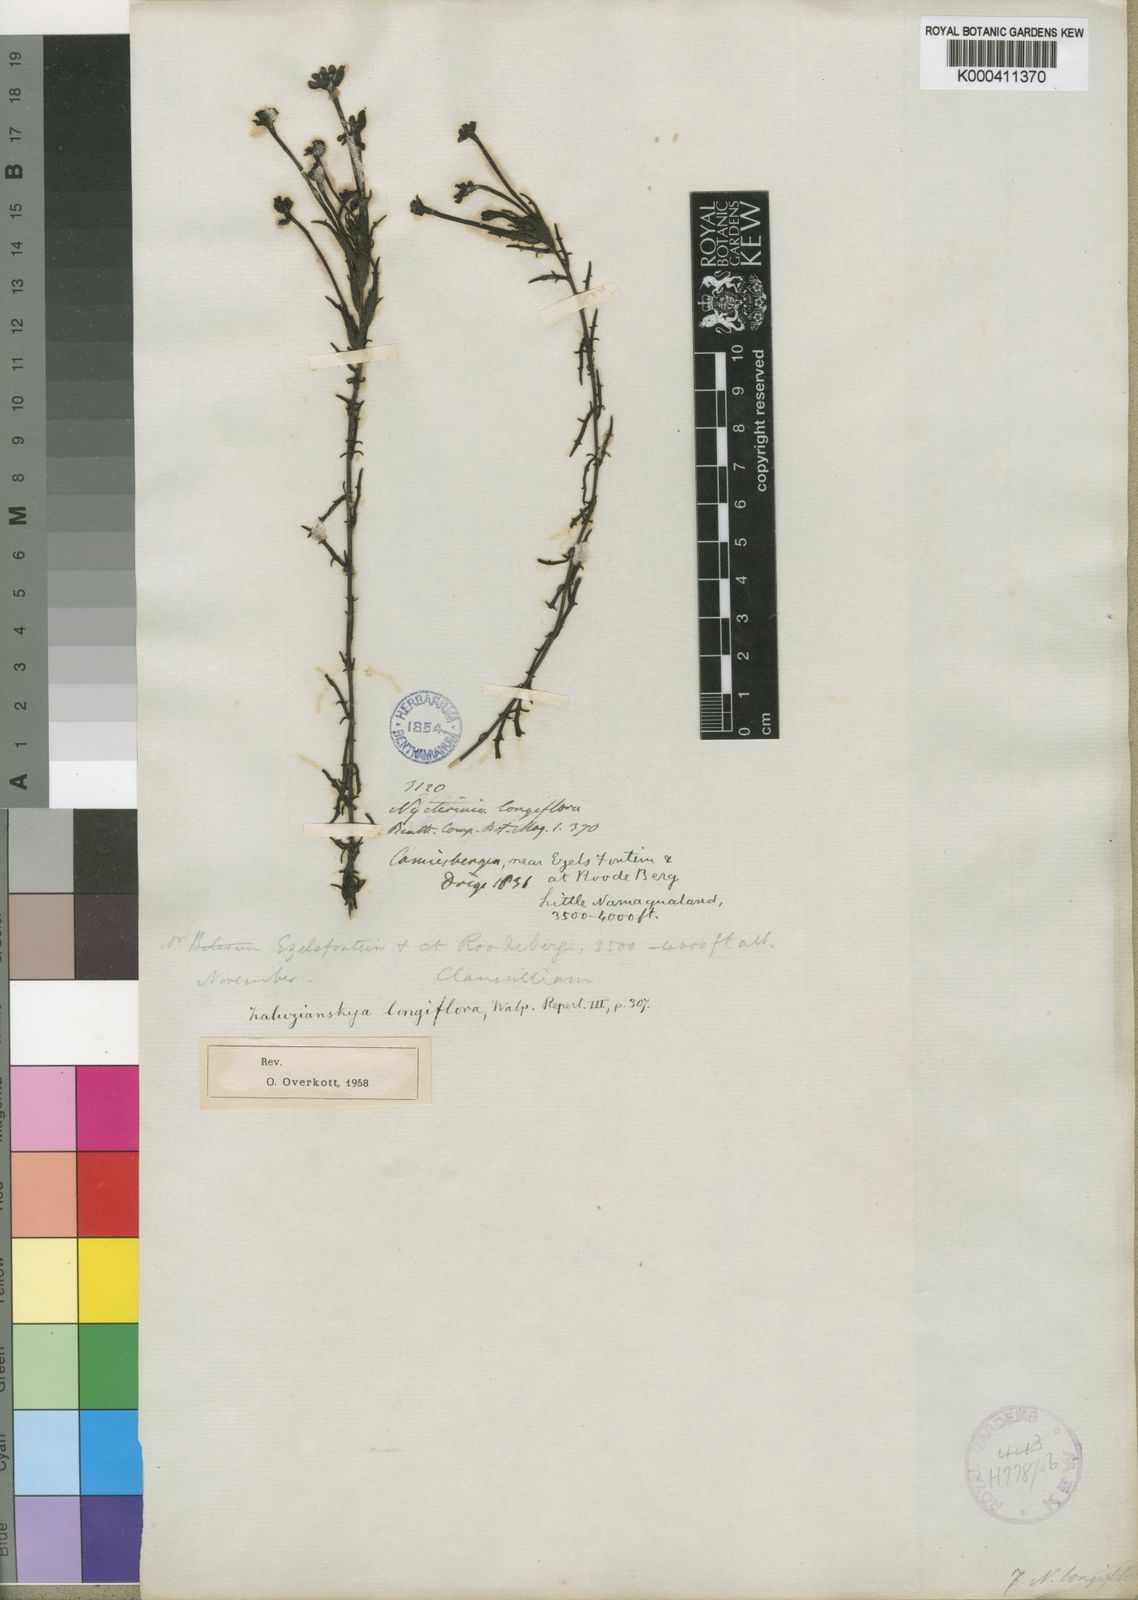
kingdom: Plantae
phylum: Tracheophyta
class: Magnoliopsida
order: Lamiales
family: Scrophulariaceae
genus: Zaluzianskya
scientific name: Zaluzianskya capensis
